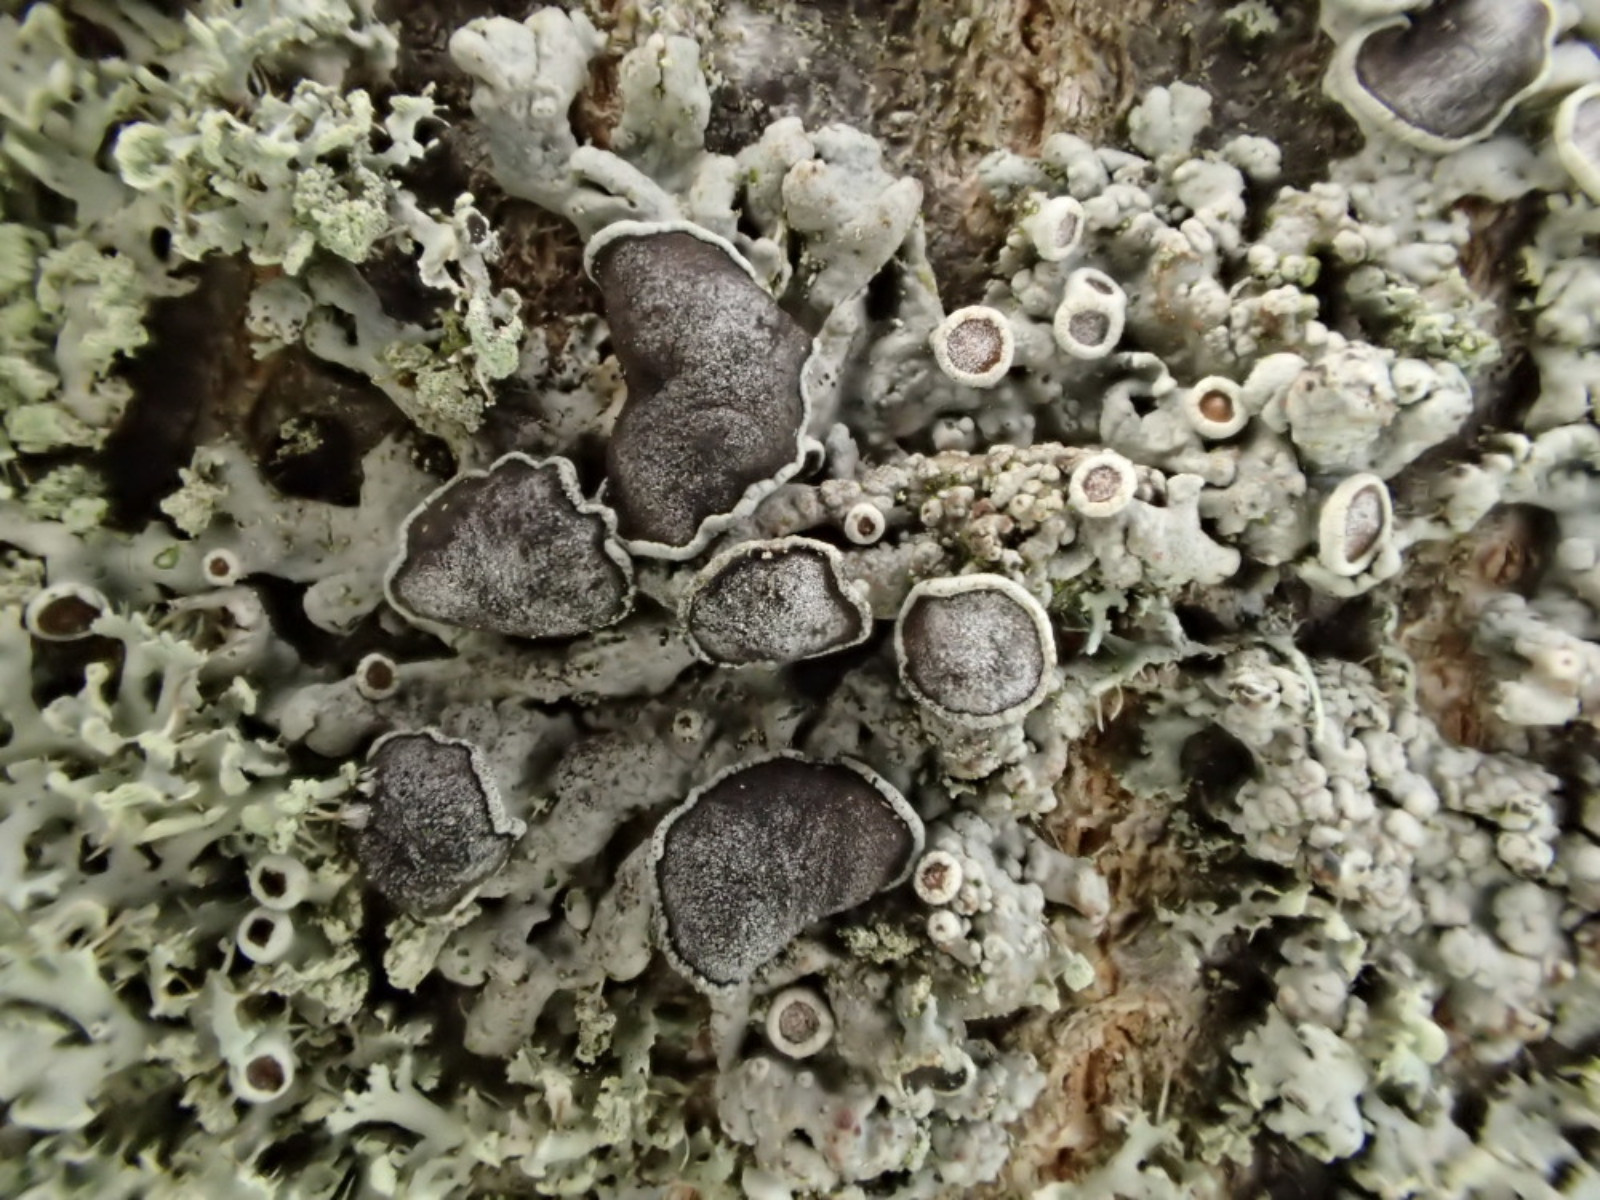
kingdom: Fungi
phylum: Ascomycota
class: Lecanoromycetes
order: Caliciales
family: Physciaceae
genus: Physcia
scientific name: Physcia stellaris
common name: stjerneformet rosetlav
